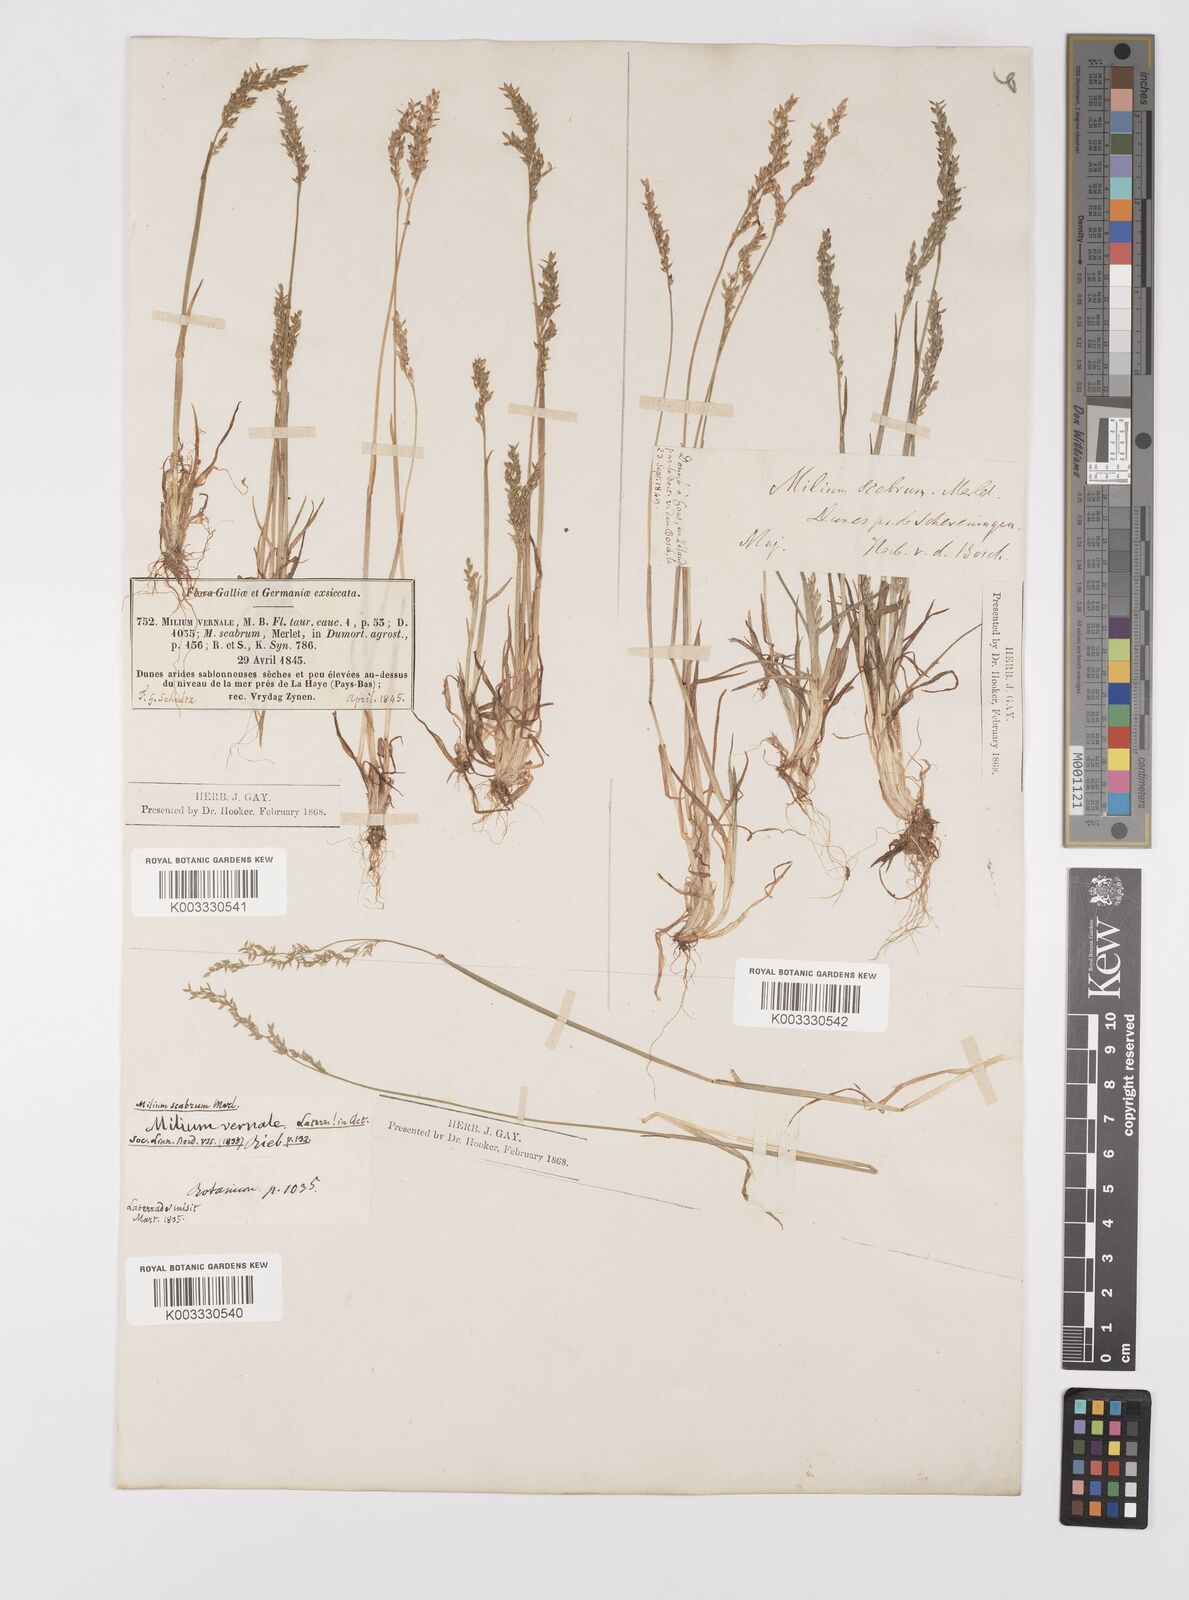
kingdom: Plantae
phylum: Tracheophyta
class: Liliopsida
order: Poales
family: Poaceae
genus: Milium
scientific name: Milium vernale
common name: Early millet
